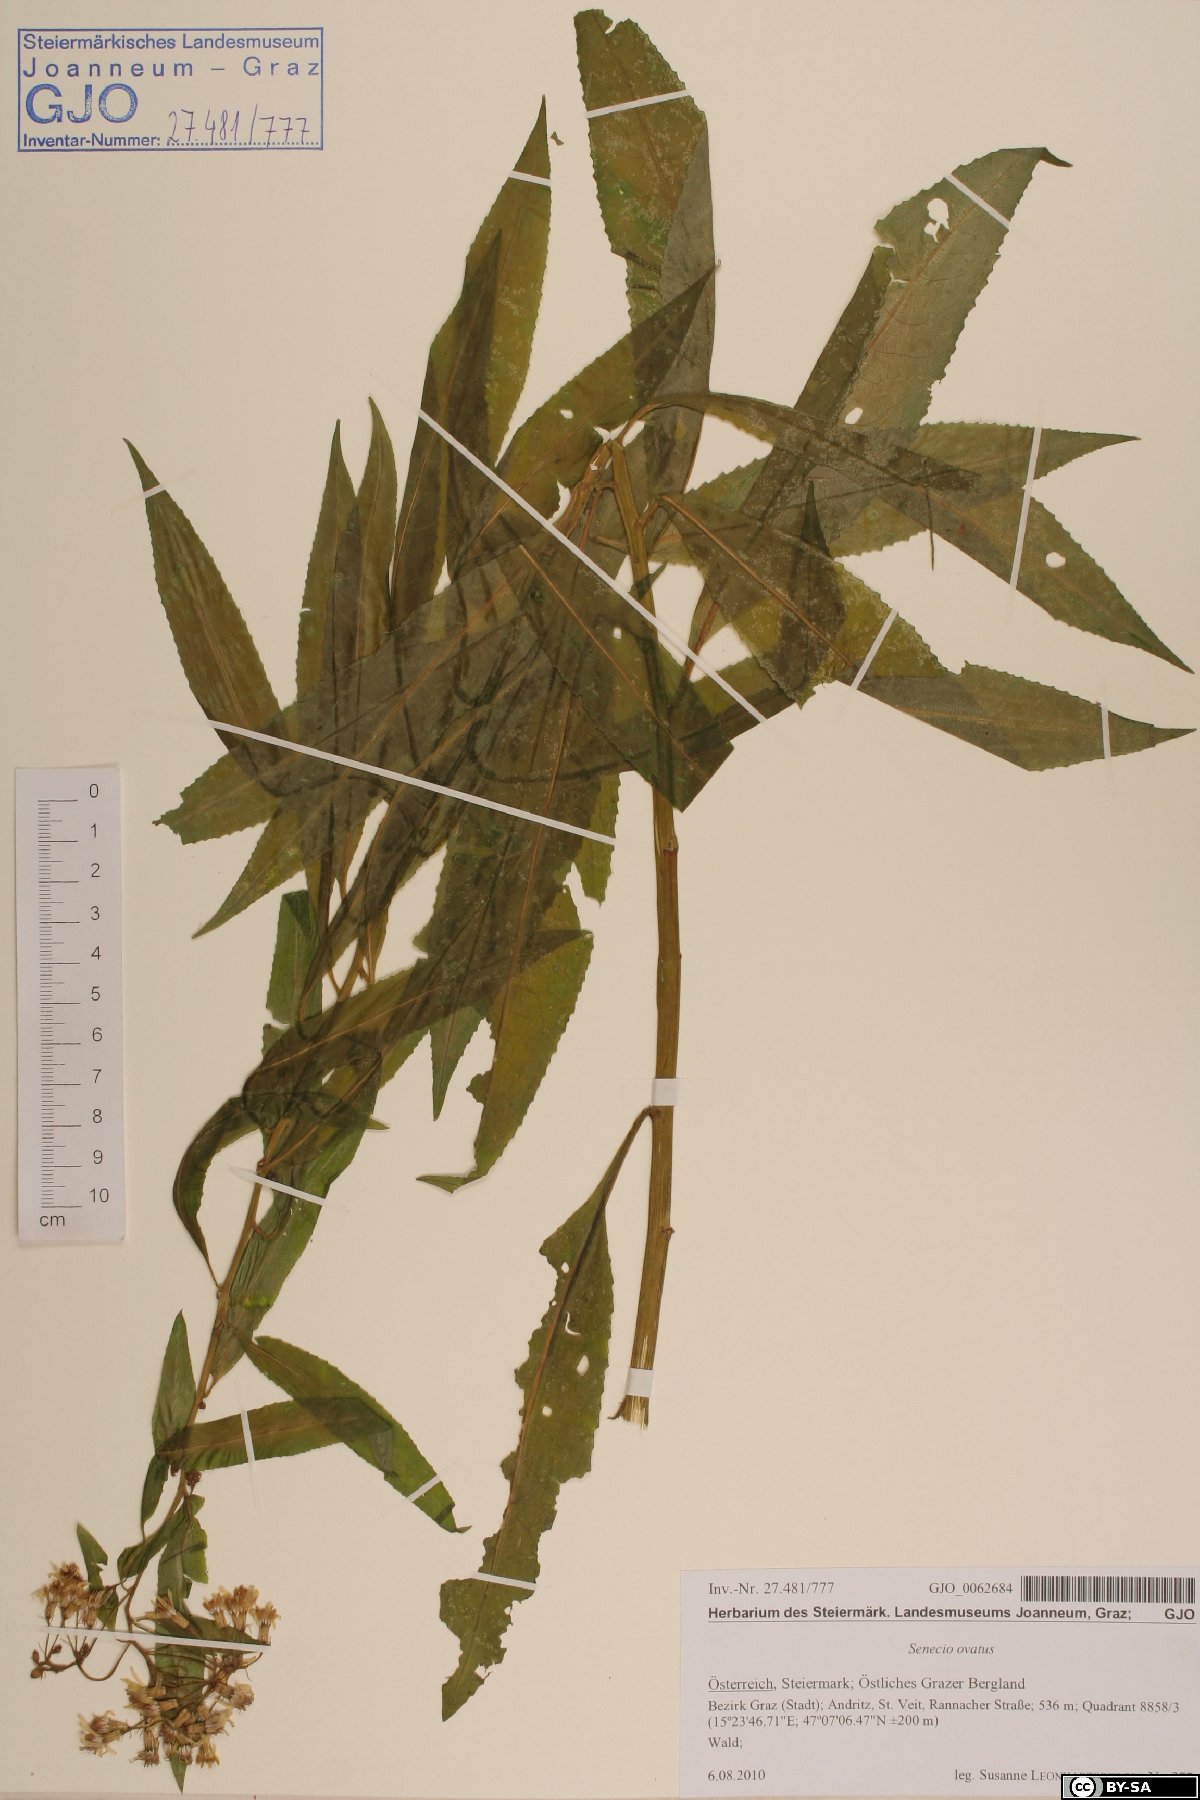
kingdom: Plantae
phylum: Tracheophyta
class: Magnoliopsida
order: Asterales
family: Asteraceae
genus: Senecio
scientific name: Senecio ovatus
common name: Wood ragwort
